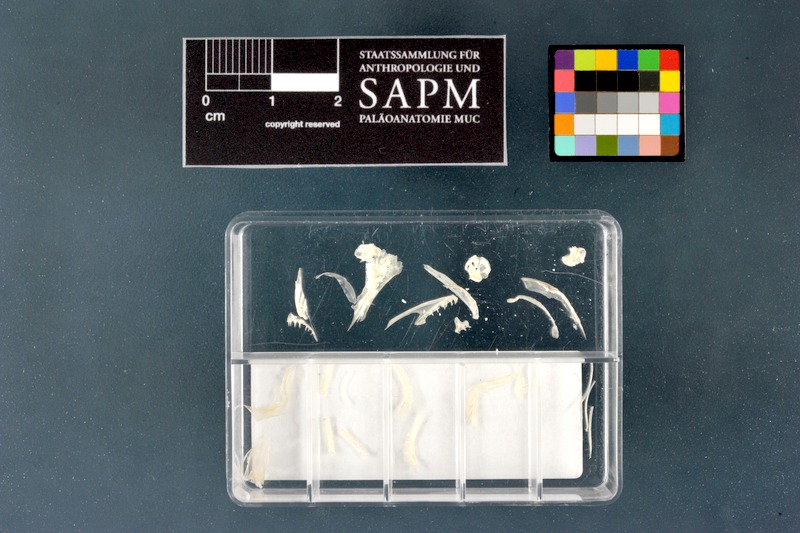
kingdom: Animalia
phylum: Chordata
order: Salmoniformes
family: Salmonidae
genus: Salvelinus
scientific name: Salvelinus alpinus
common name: Charr
